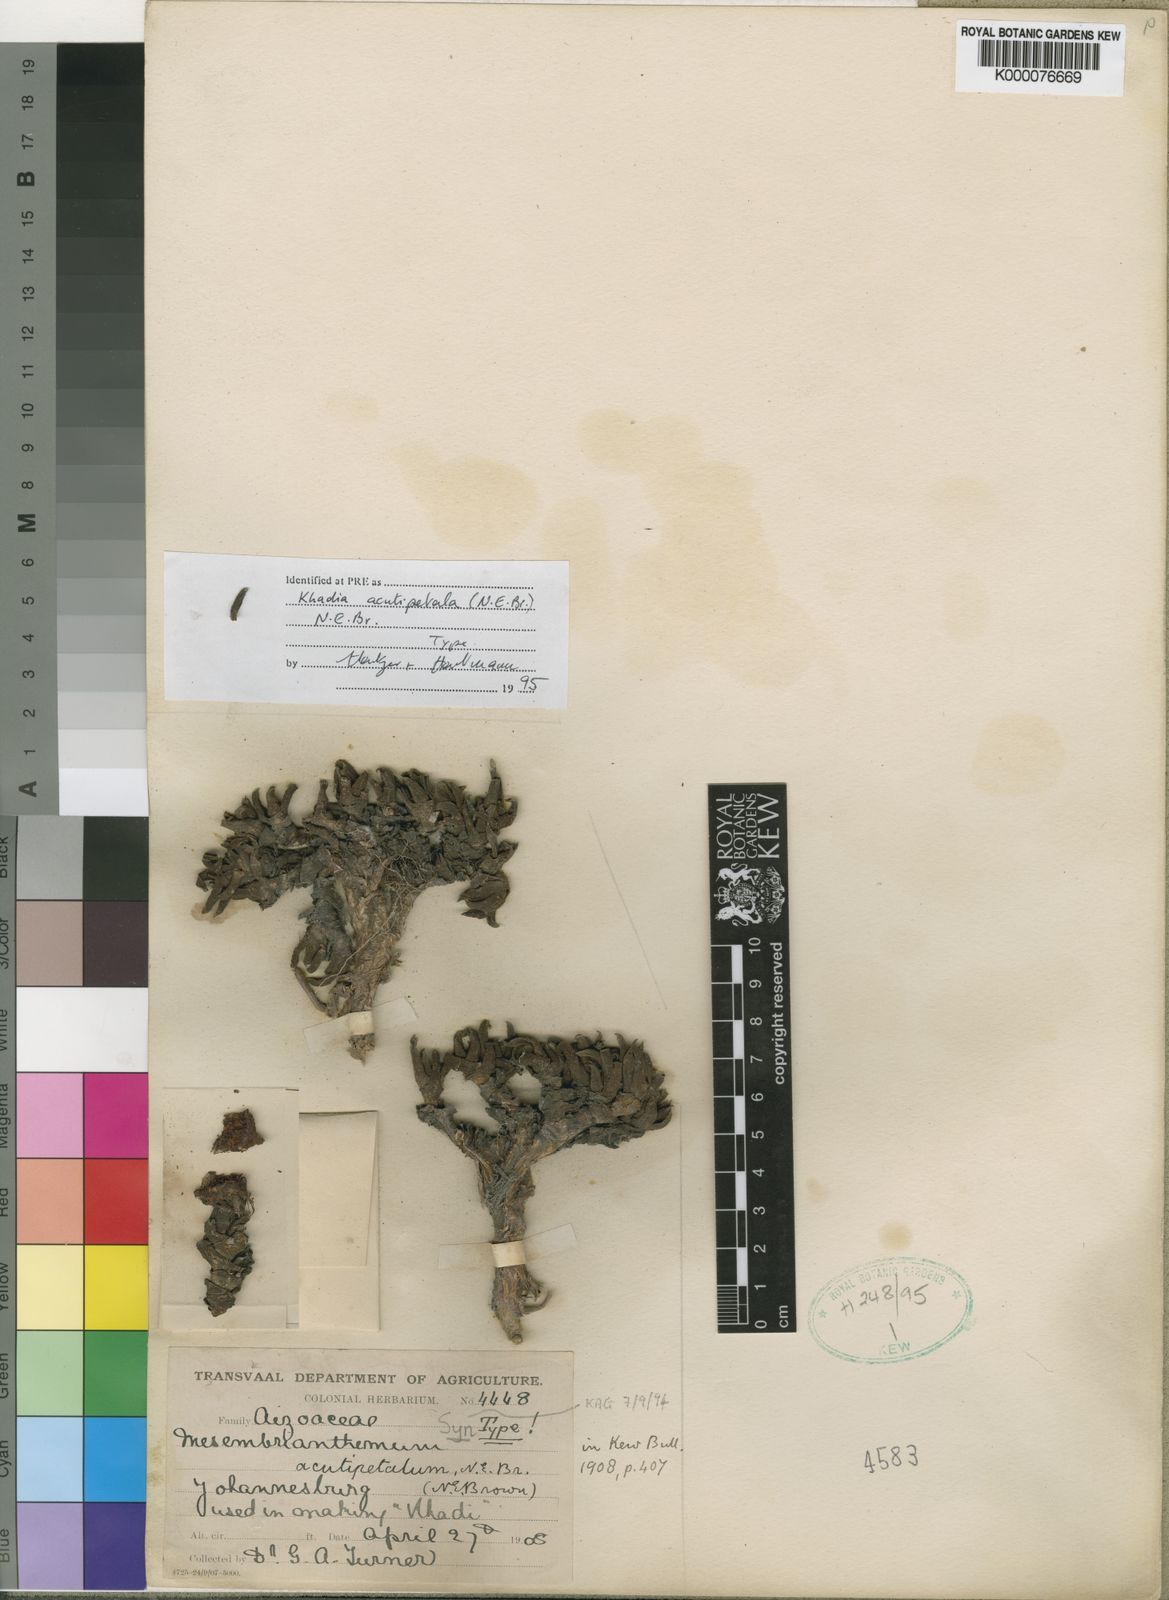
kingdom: Plantae
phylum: Tracheophyta
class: Magnoliopsida
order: Caryophyllales
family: Aizoaceae
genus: Khadia
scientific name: Khadia acutipetala
